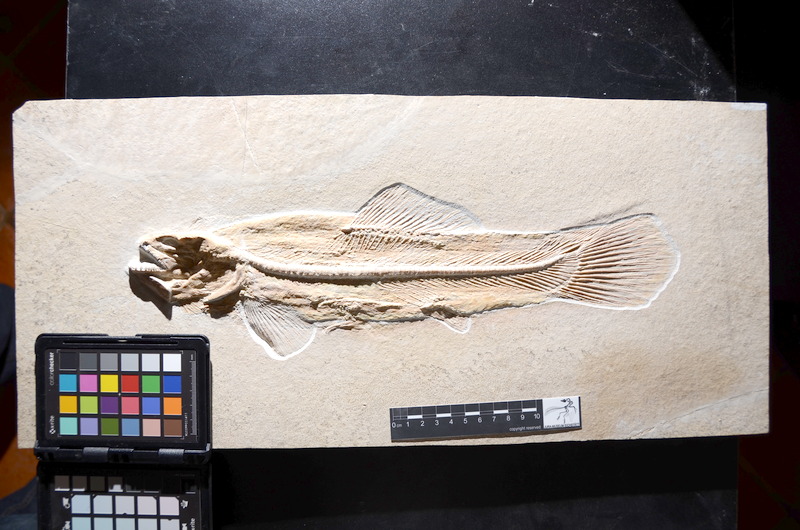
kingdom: Animalia
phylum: Chordata
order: Amiiformes
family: Amiidae
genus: Solnhofenamia
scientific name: Solnhofenamia elongata
